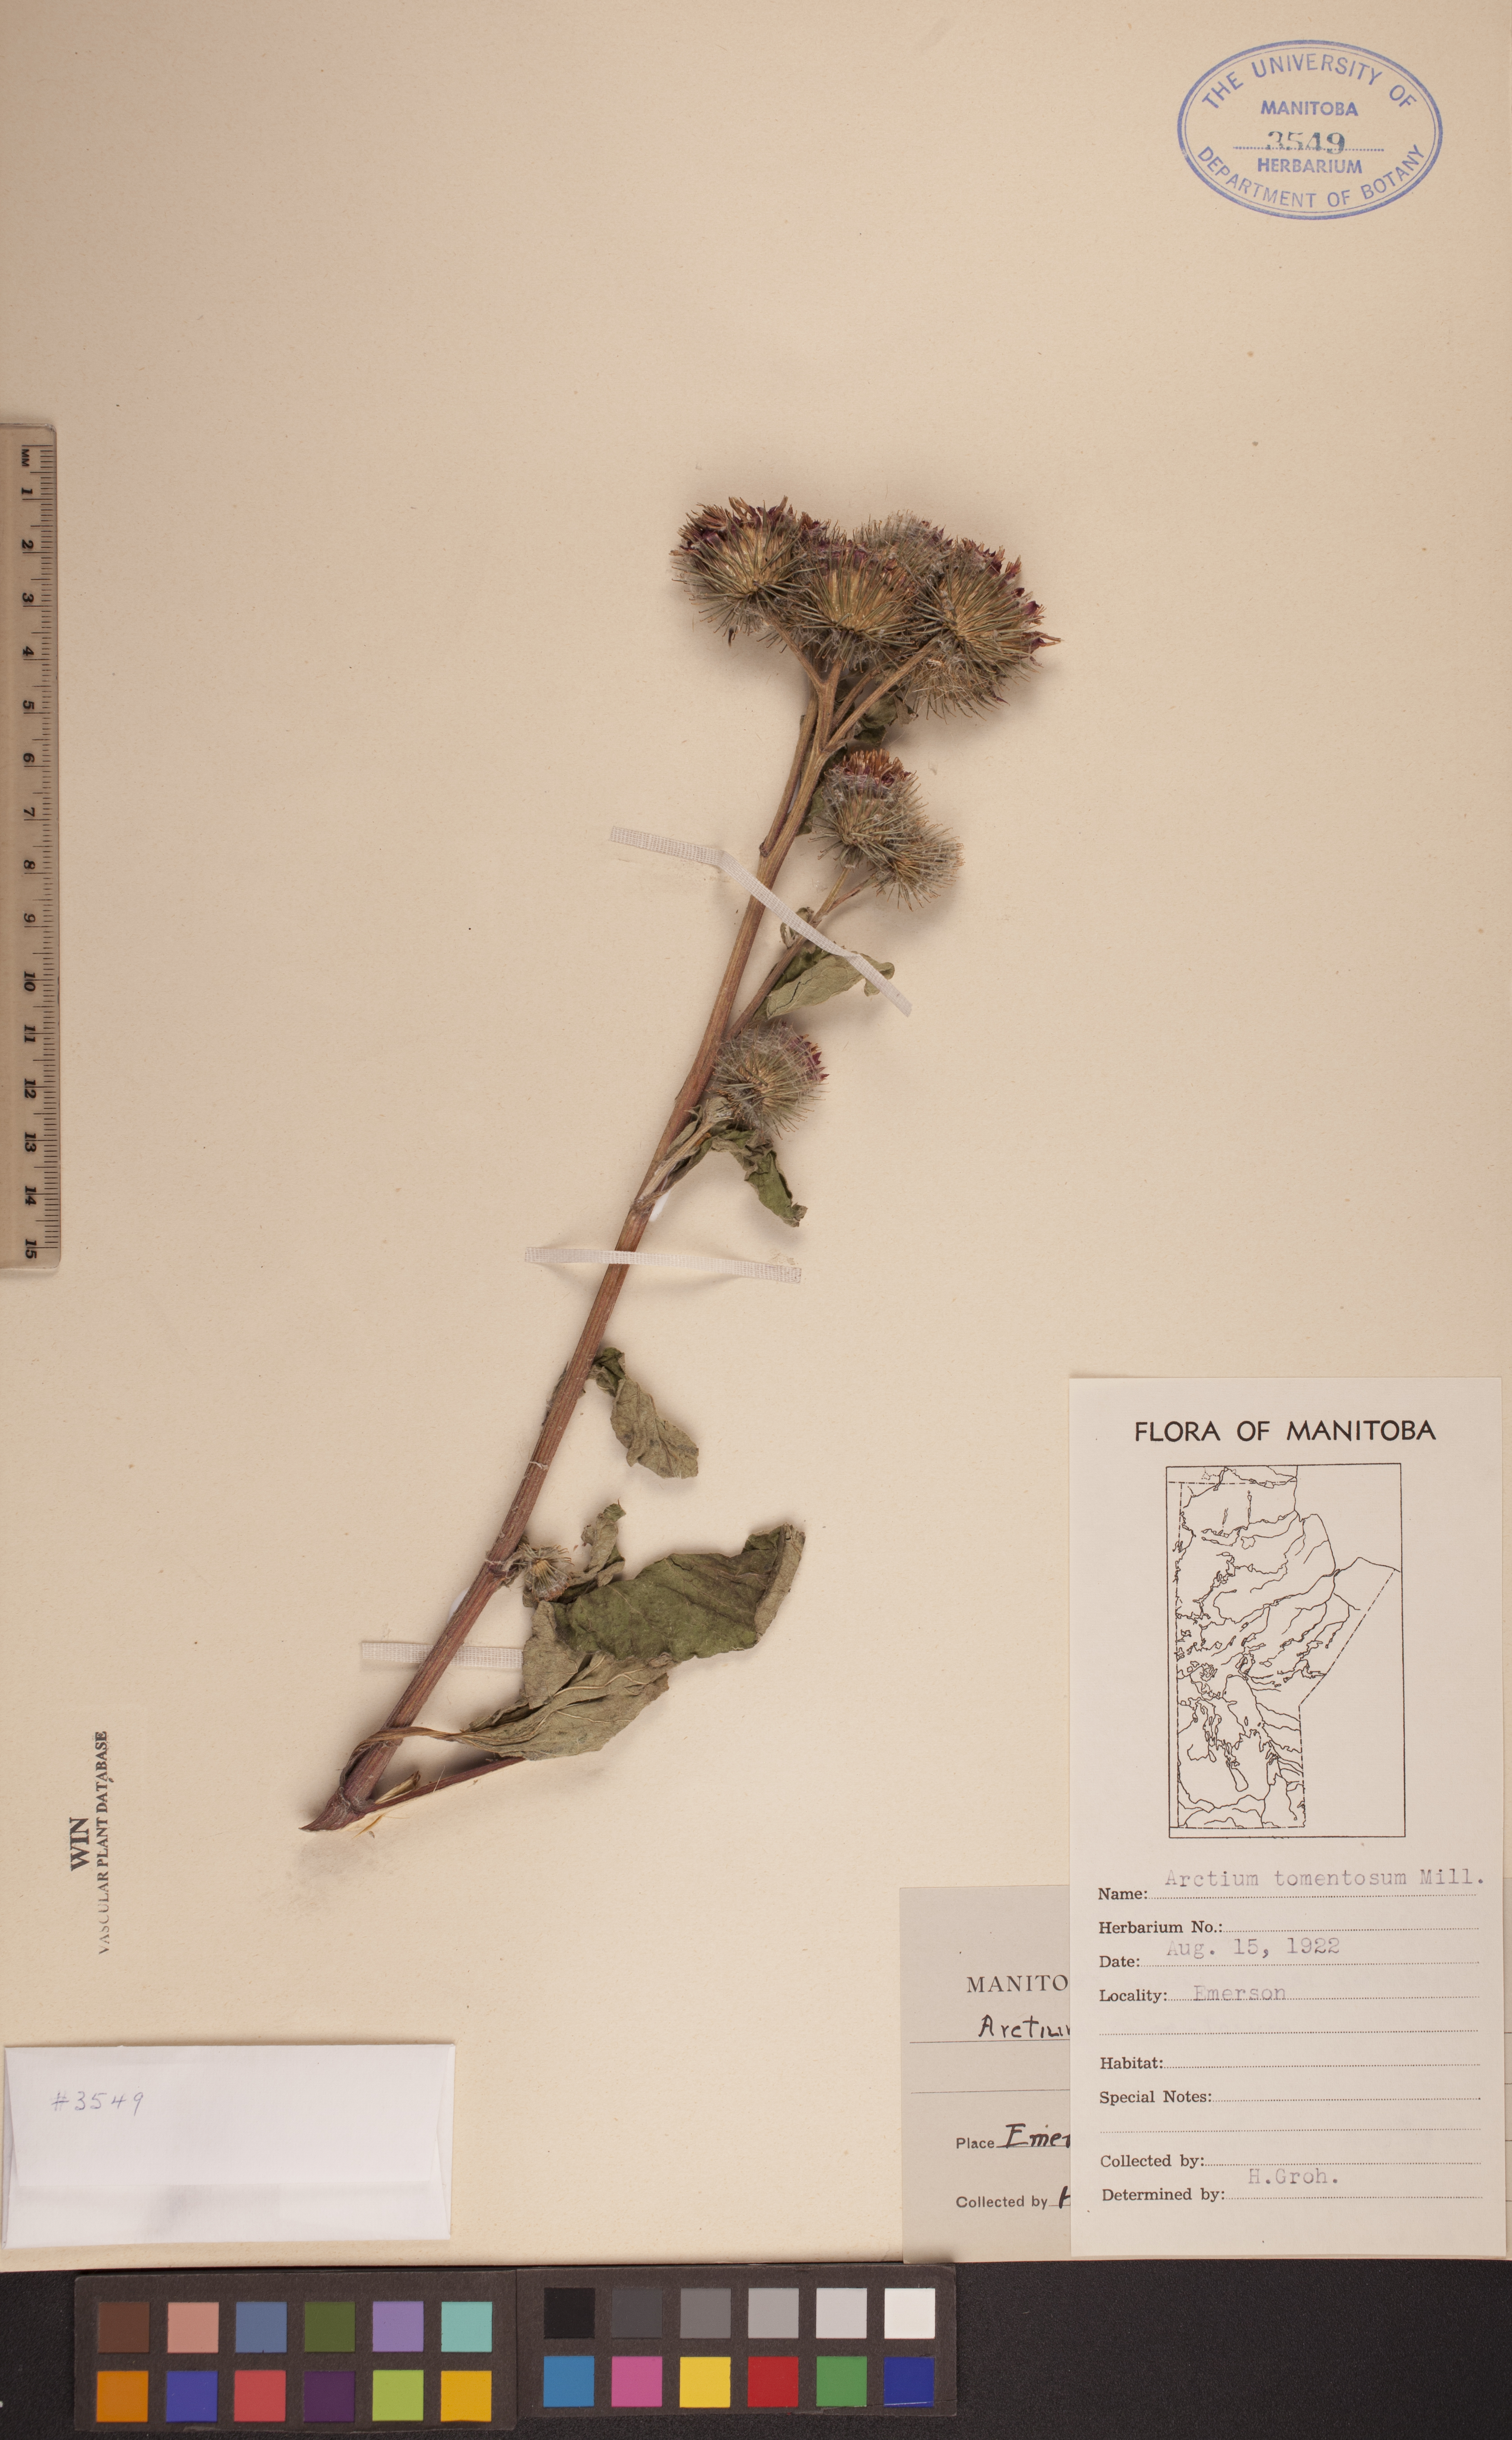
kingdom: Plantae
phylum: Tracheophyta
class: Magnoliopsida
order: Asterales
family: Asteraceae
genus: Arctium
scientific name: Arctium tomentosum
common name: Woolly burdock
